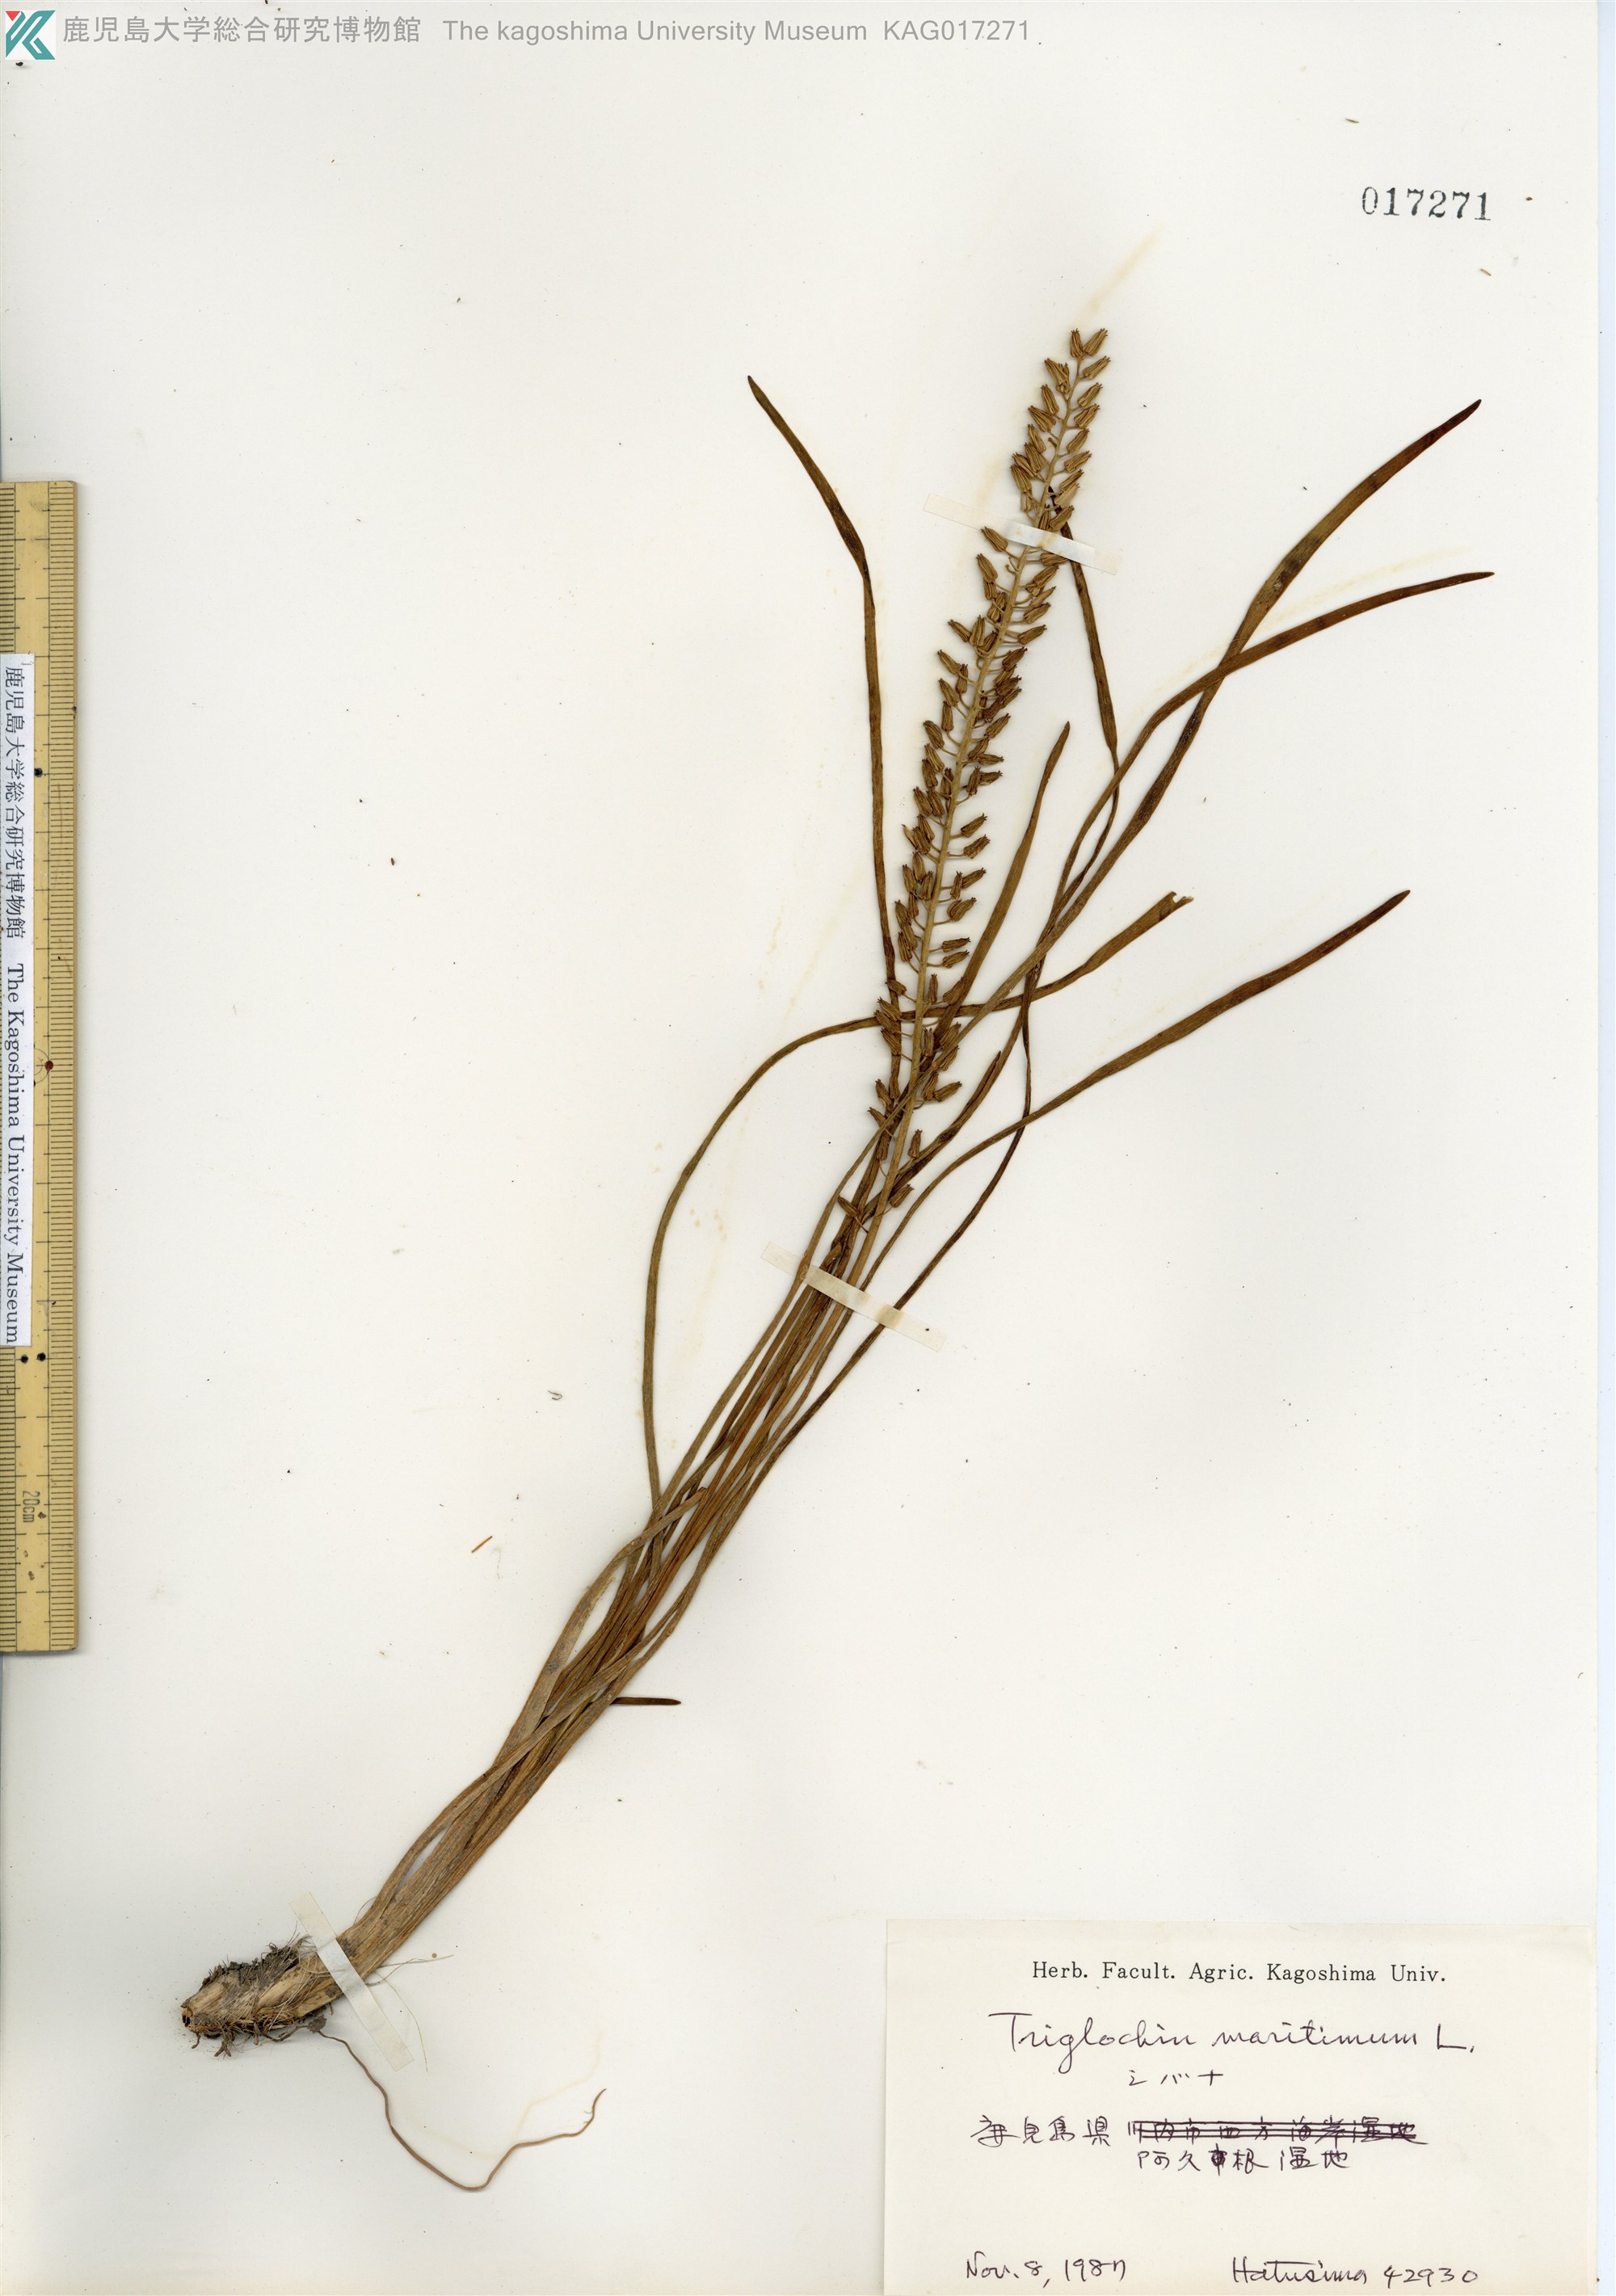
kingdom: Plantae
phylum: Tracheophyta
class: Liliopsida
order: Alismatales
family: Juncaginaceae
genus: Triglochin
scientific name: Triglochin maritima
